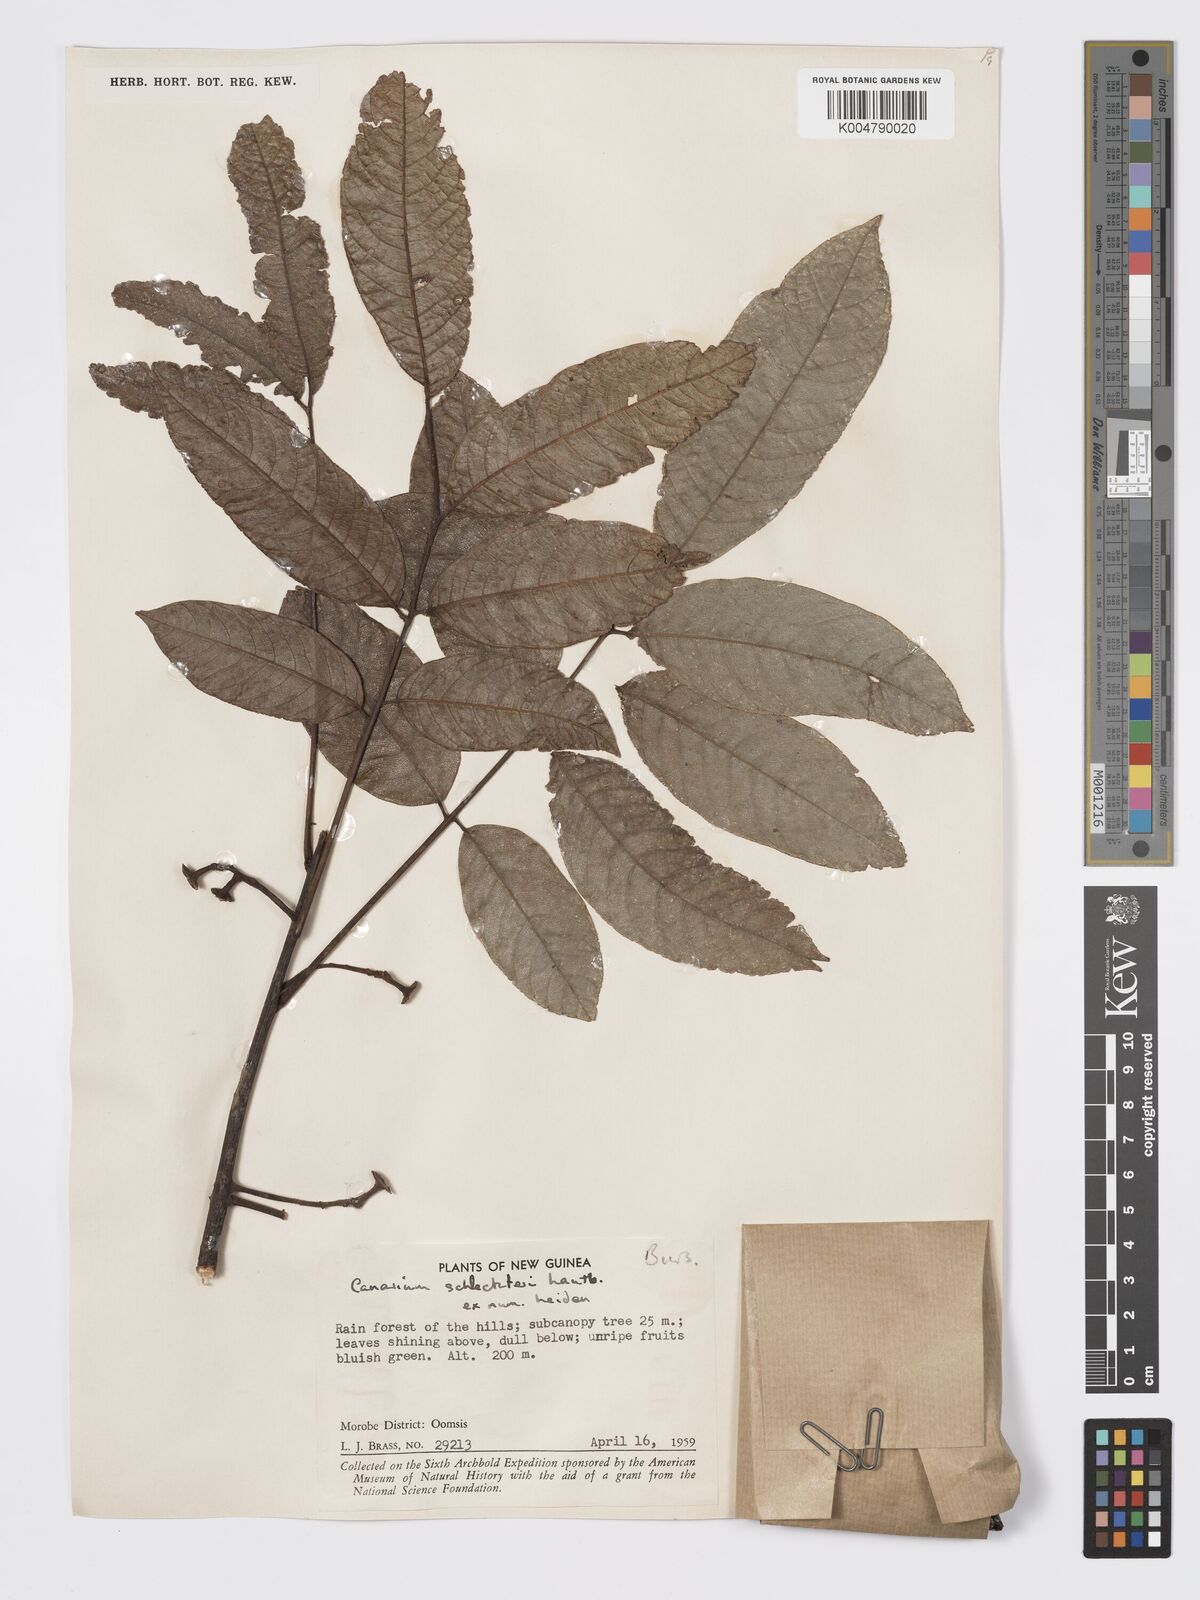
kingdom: Plantae
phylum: Tracheophyta
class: Magnoliopsida
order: Sapindales
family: Burseraceae
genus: Canarium
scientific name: Canarium schlechteri
